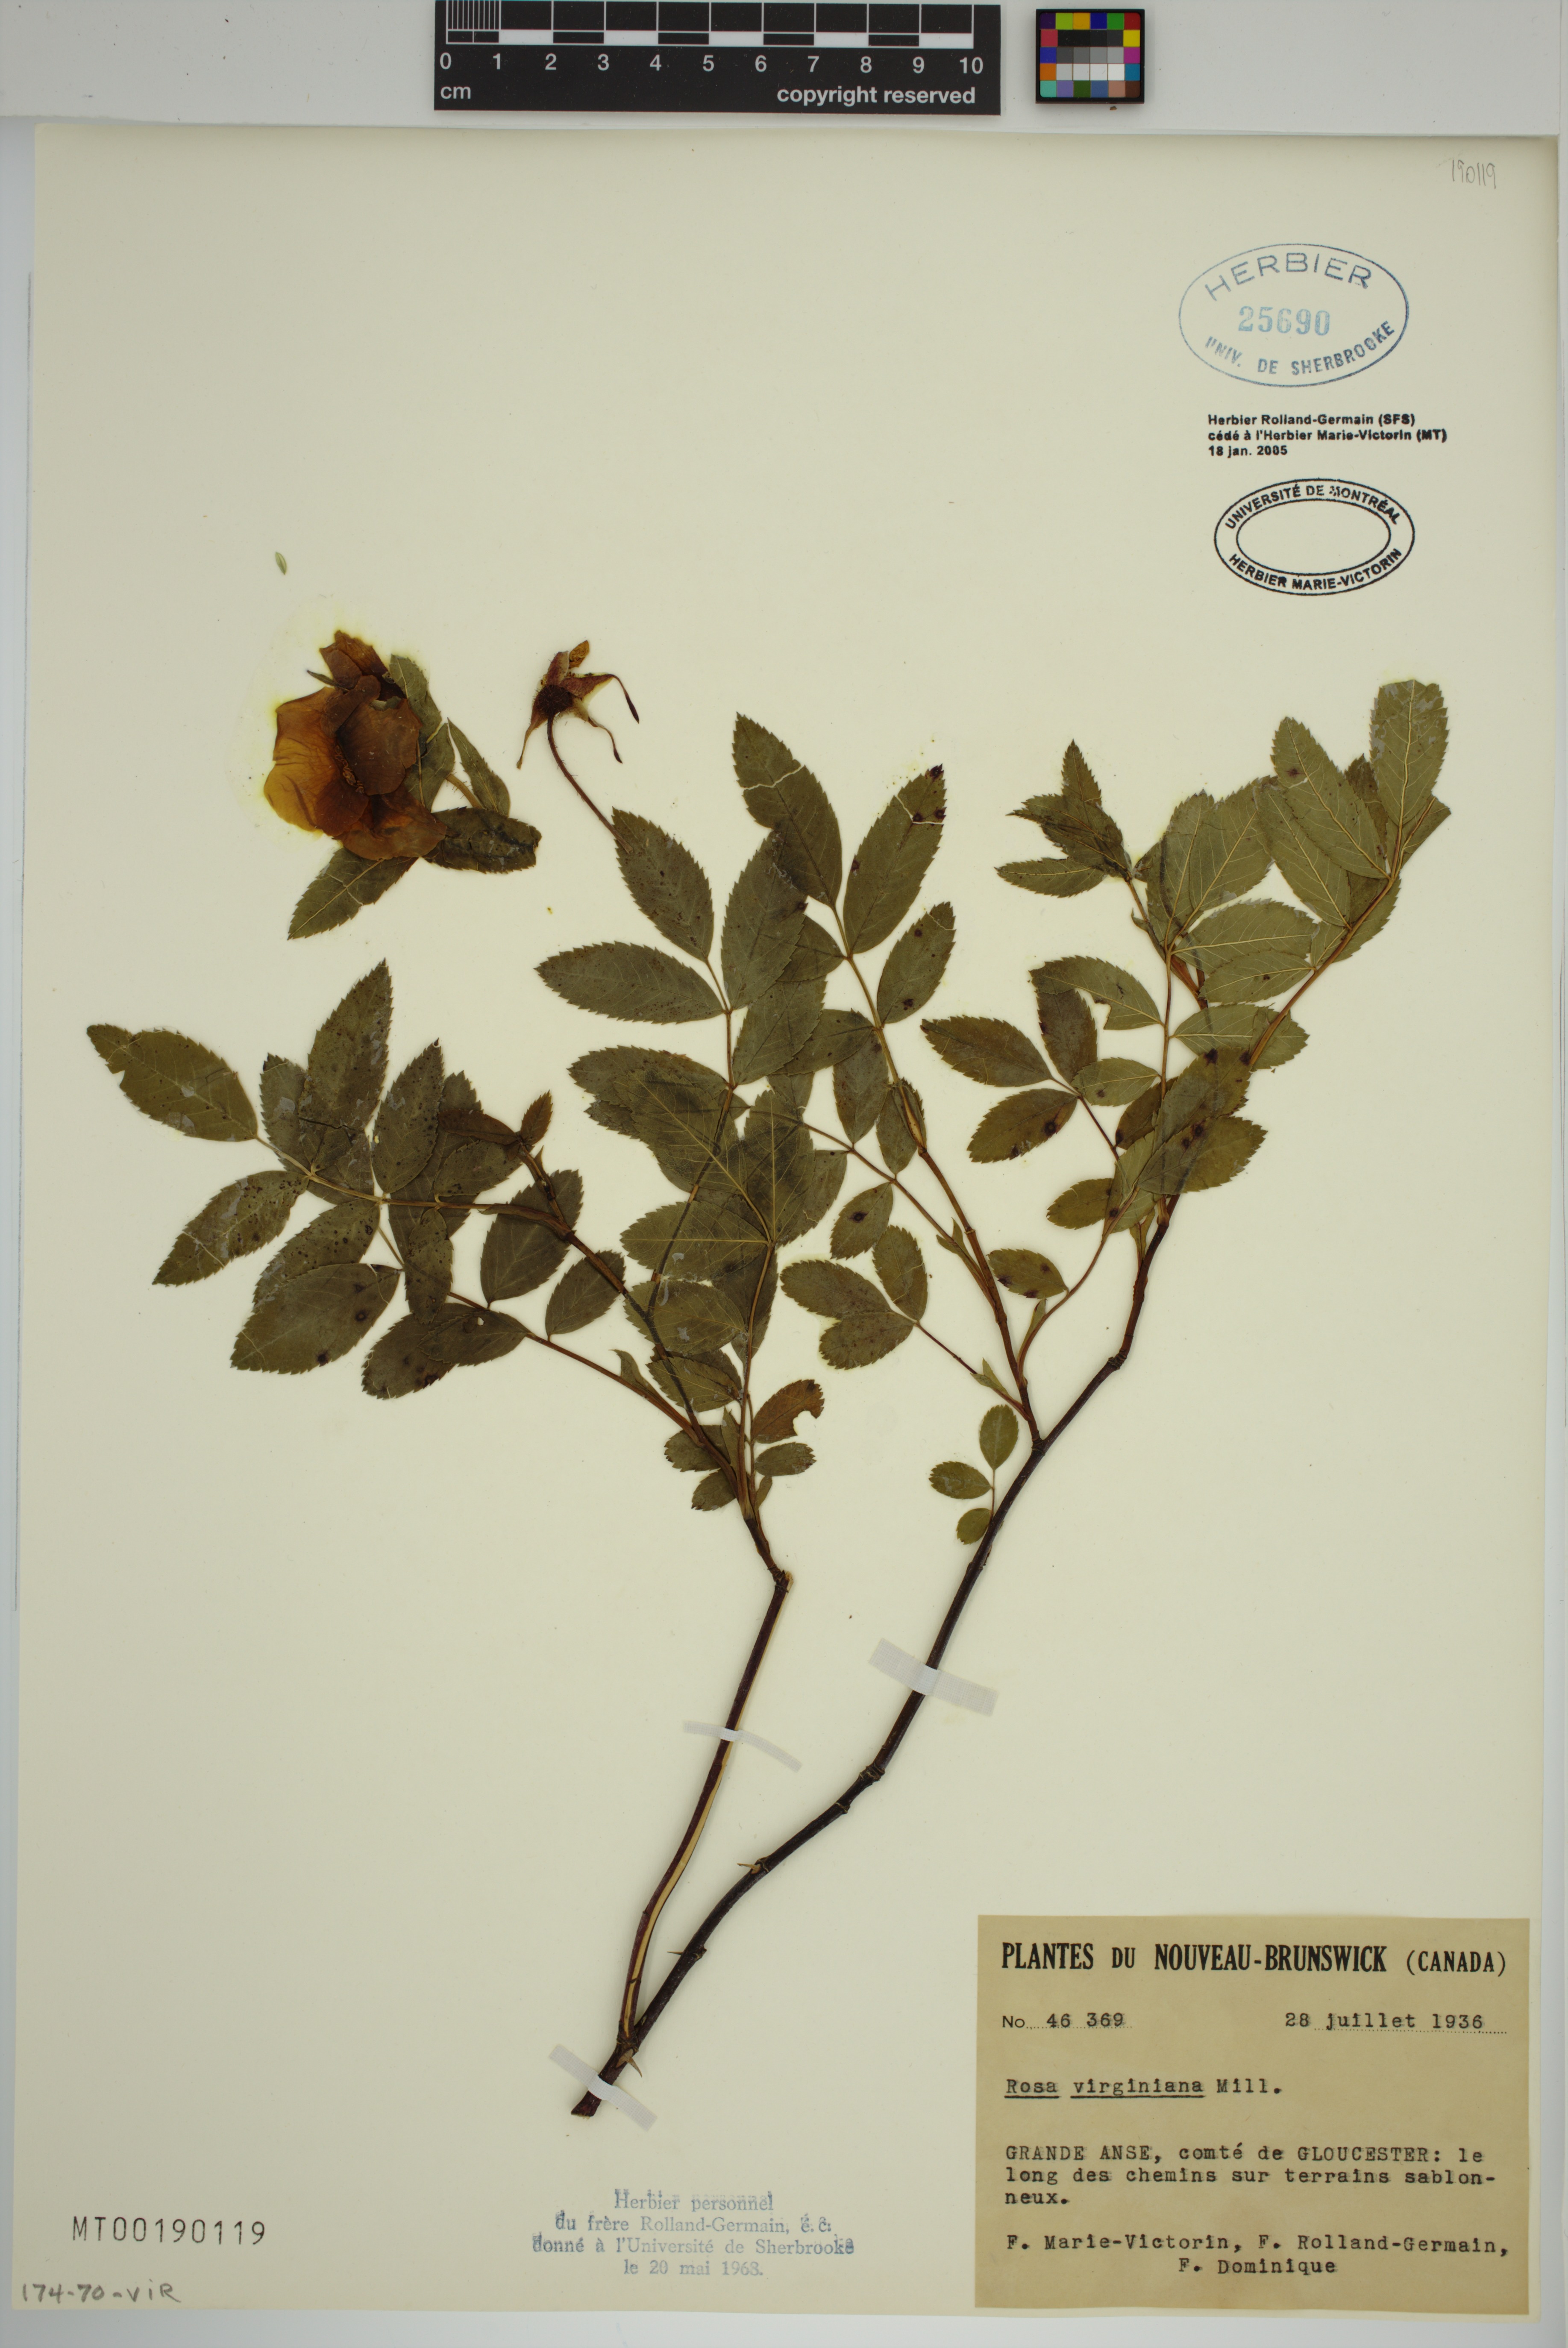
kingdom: Plantae
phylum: Tracheophyta
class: Magnoliopsida
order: Rosales
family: Rosaceae
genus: Rosa
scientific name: Rosa carolina
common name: Pasture rose
